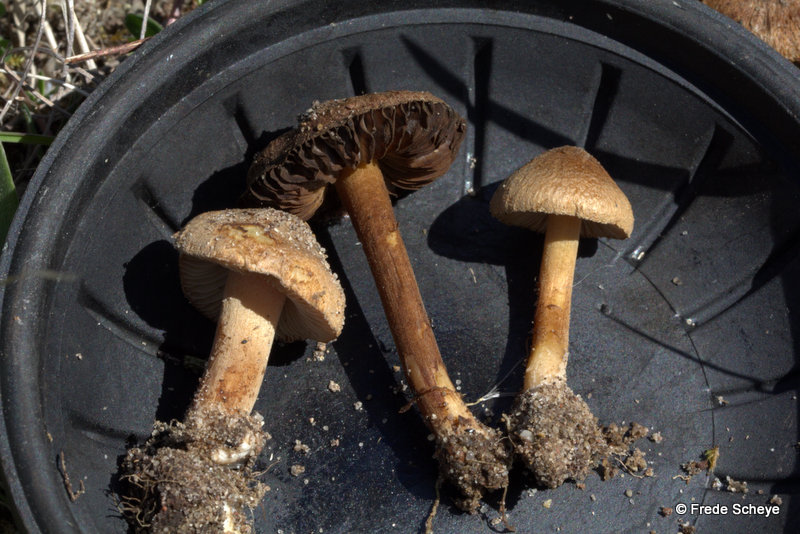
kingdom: Fungi
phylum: Basidiomycota
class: Agaricomycetes
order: Agaricales
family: Inocybaceae
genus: Inocybe
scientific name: Inocybe similis
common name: klit-trævlhat
